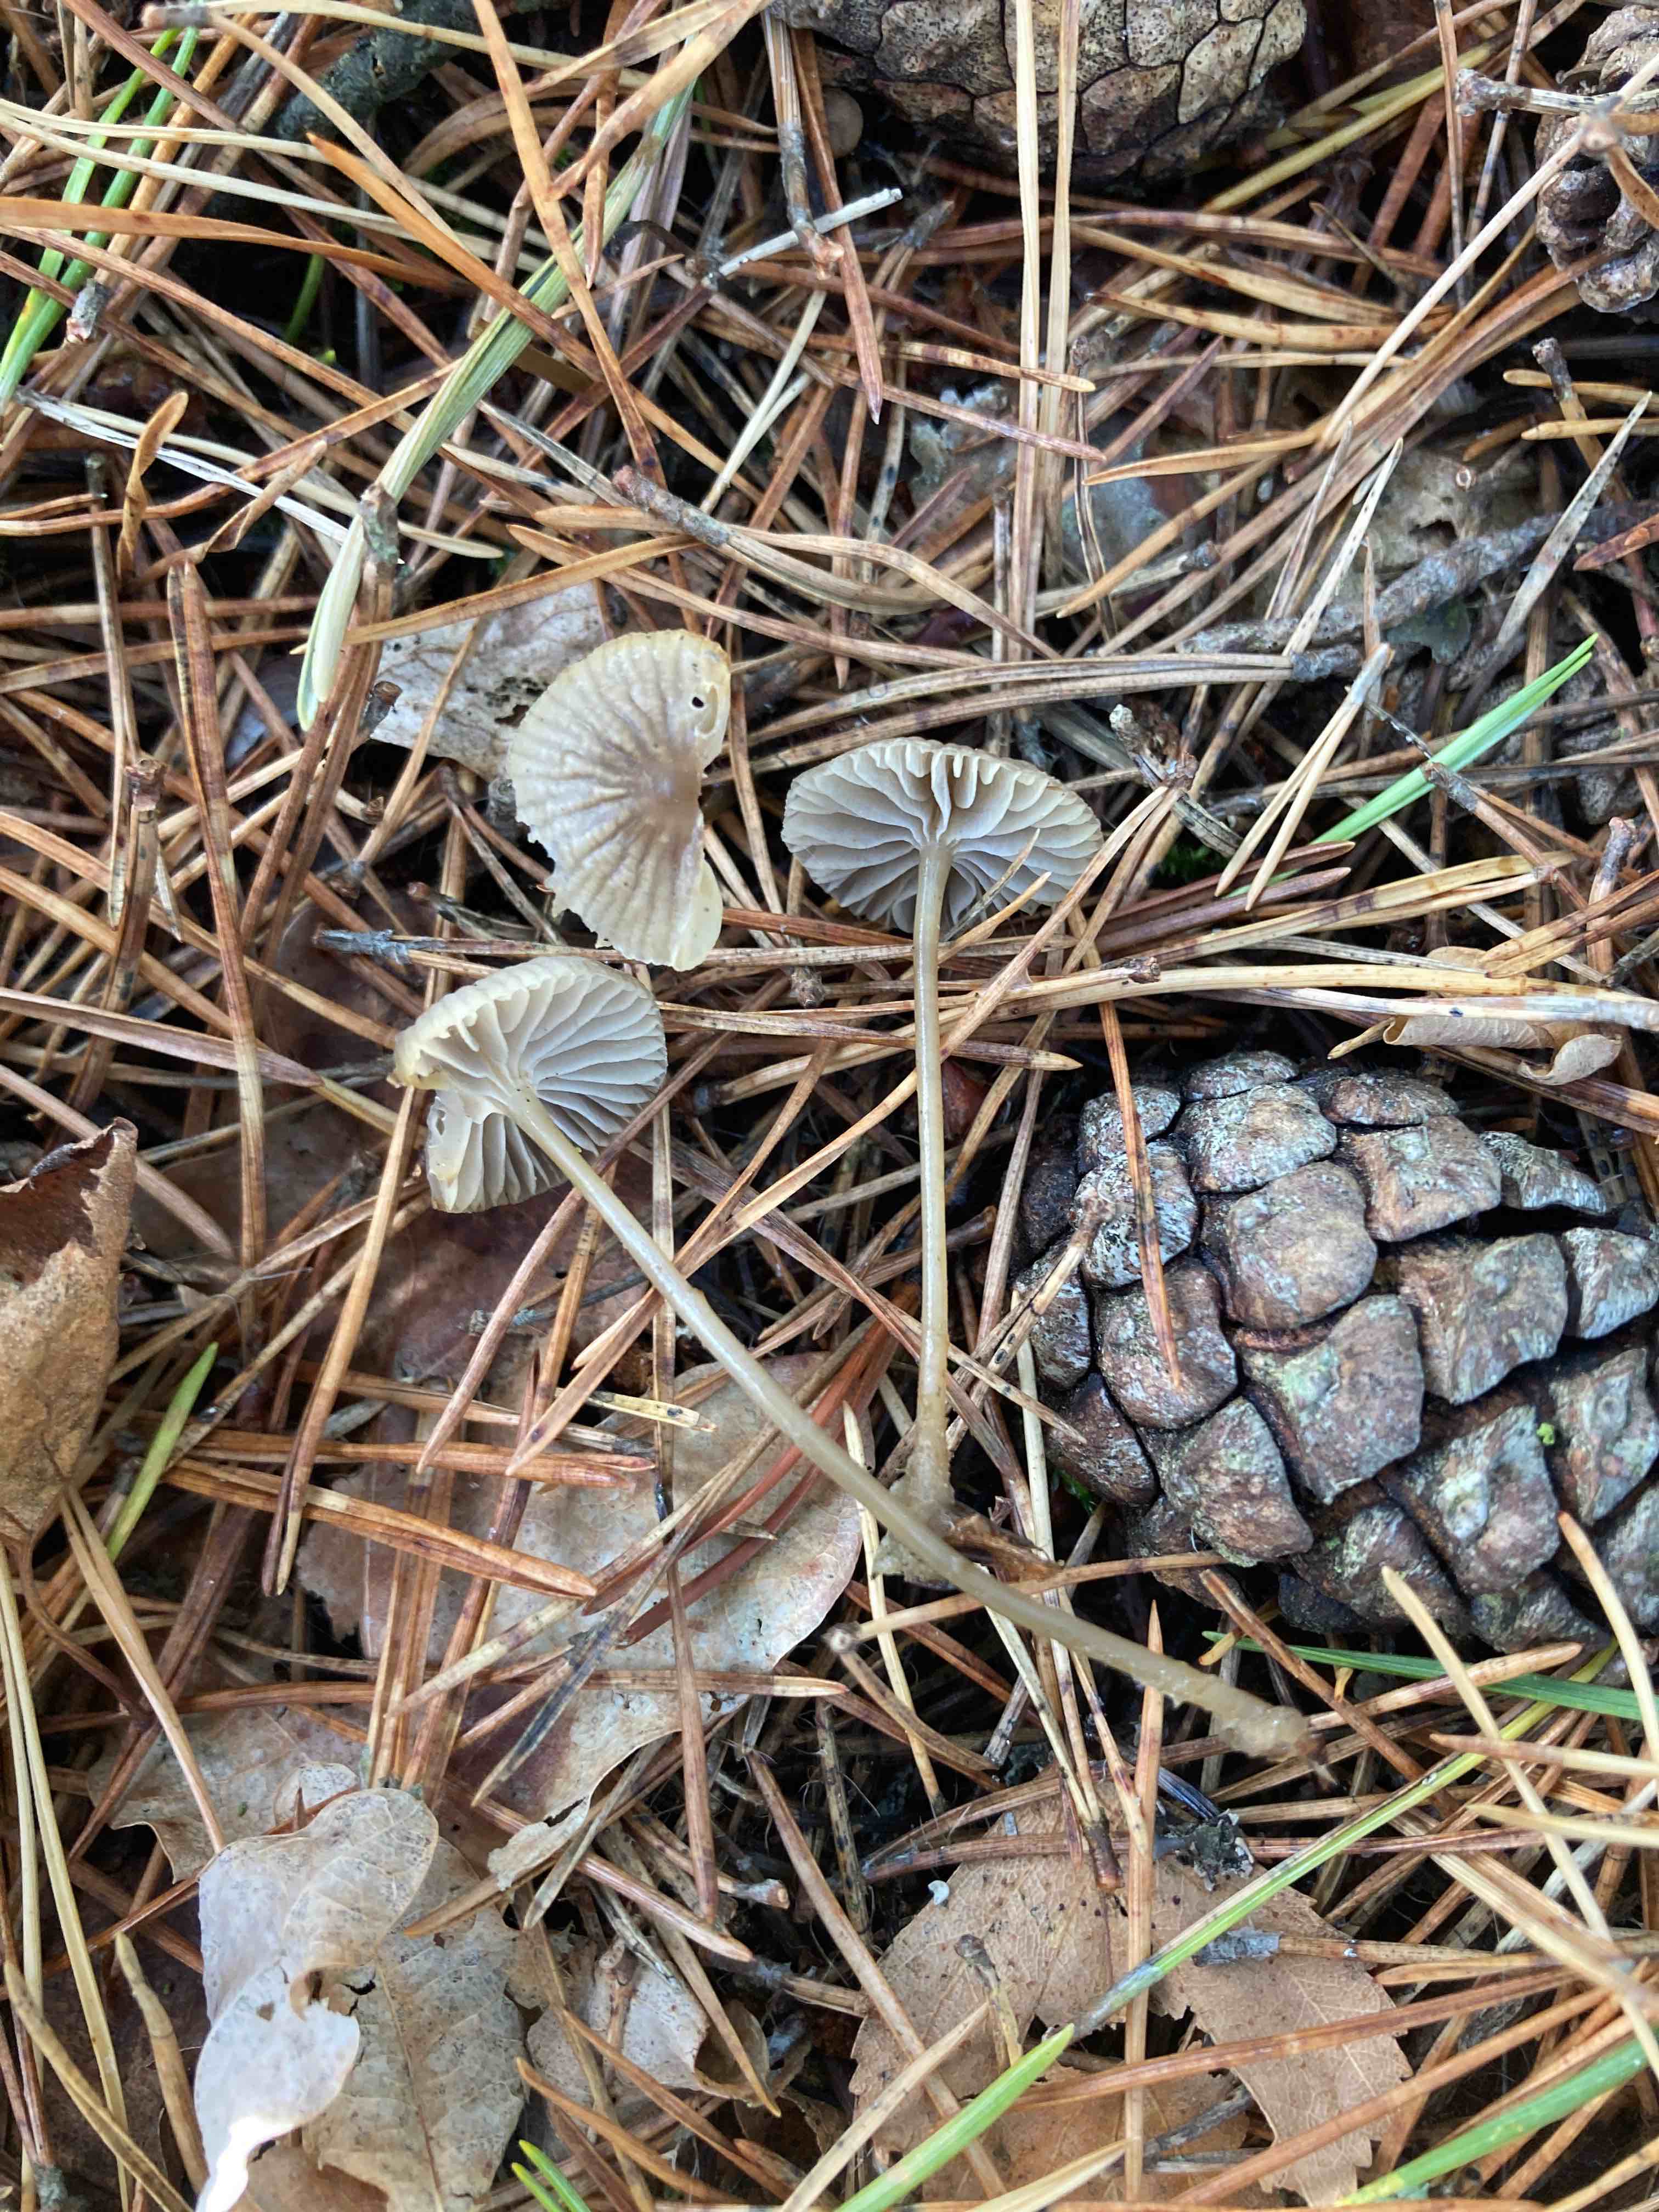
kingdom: Fungi
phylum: Basidiomycota
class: Agaricomycetes
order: Agaricales
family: Mycenaceae
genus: Mycena
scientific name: Mycena clavicularis
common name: fyrre-huesvamp
